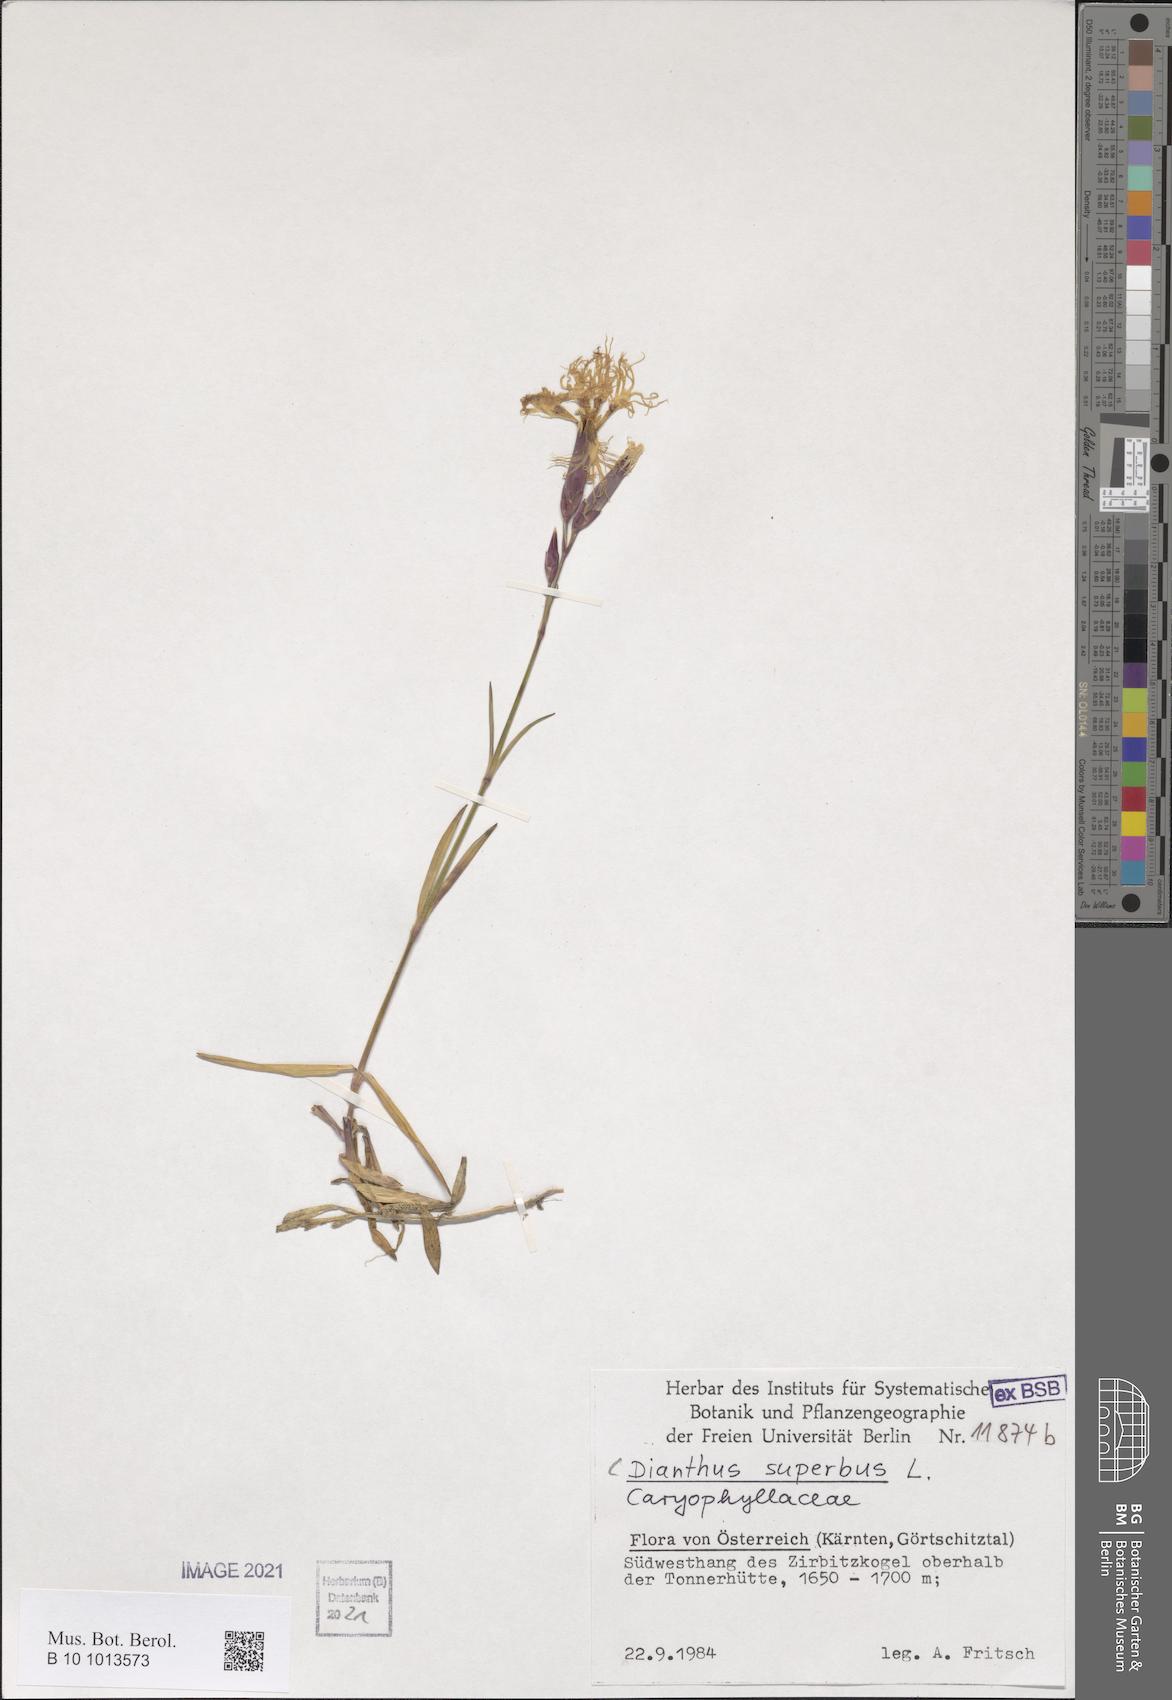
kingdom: Plantae
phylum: Tracheophyta
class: Magnoliopsida
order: Caryophyllales
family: Caryophyllaceae
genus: Dianthus
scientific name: Dianthus superbus
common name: Fringed pink
